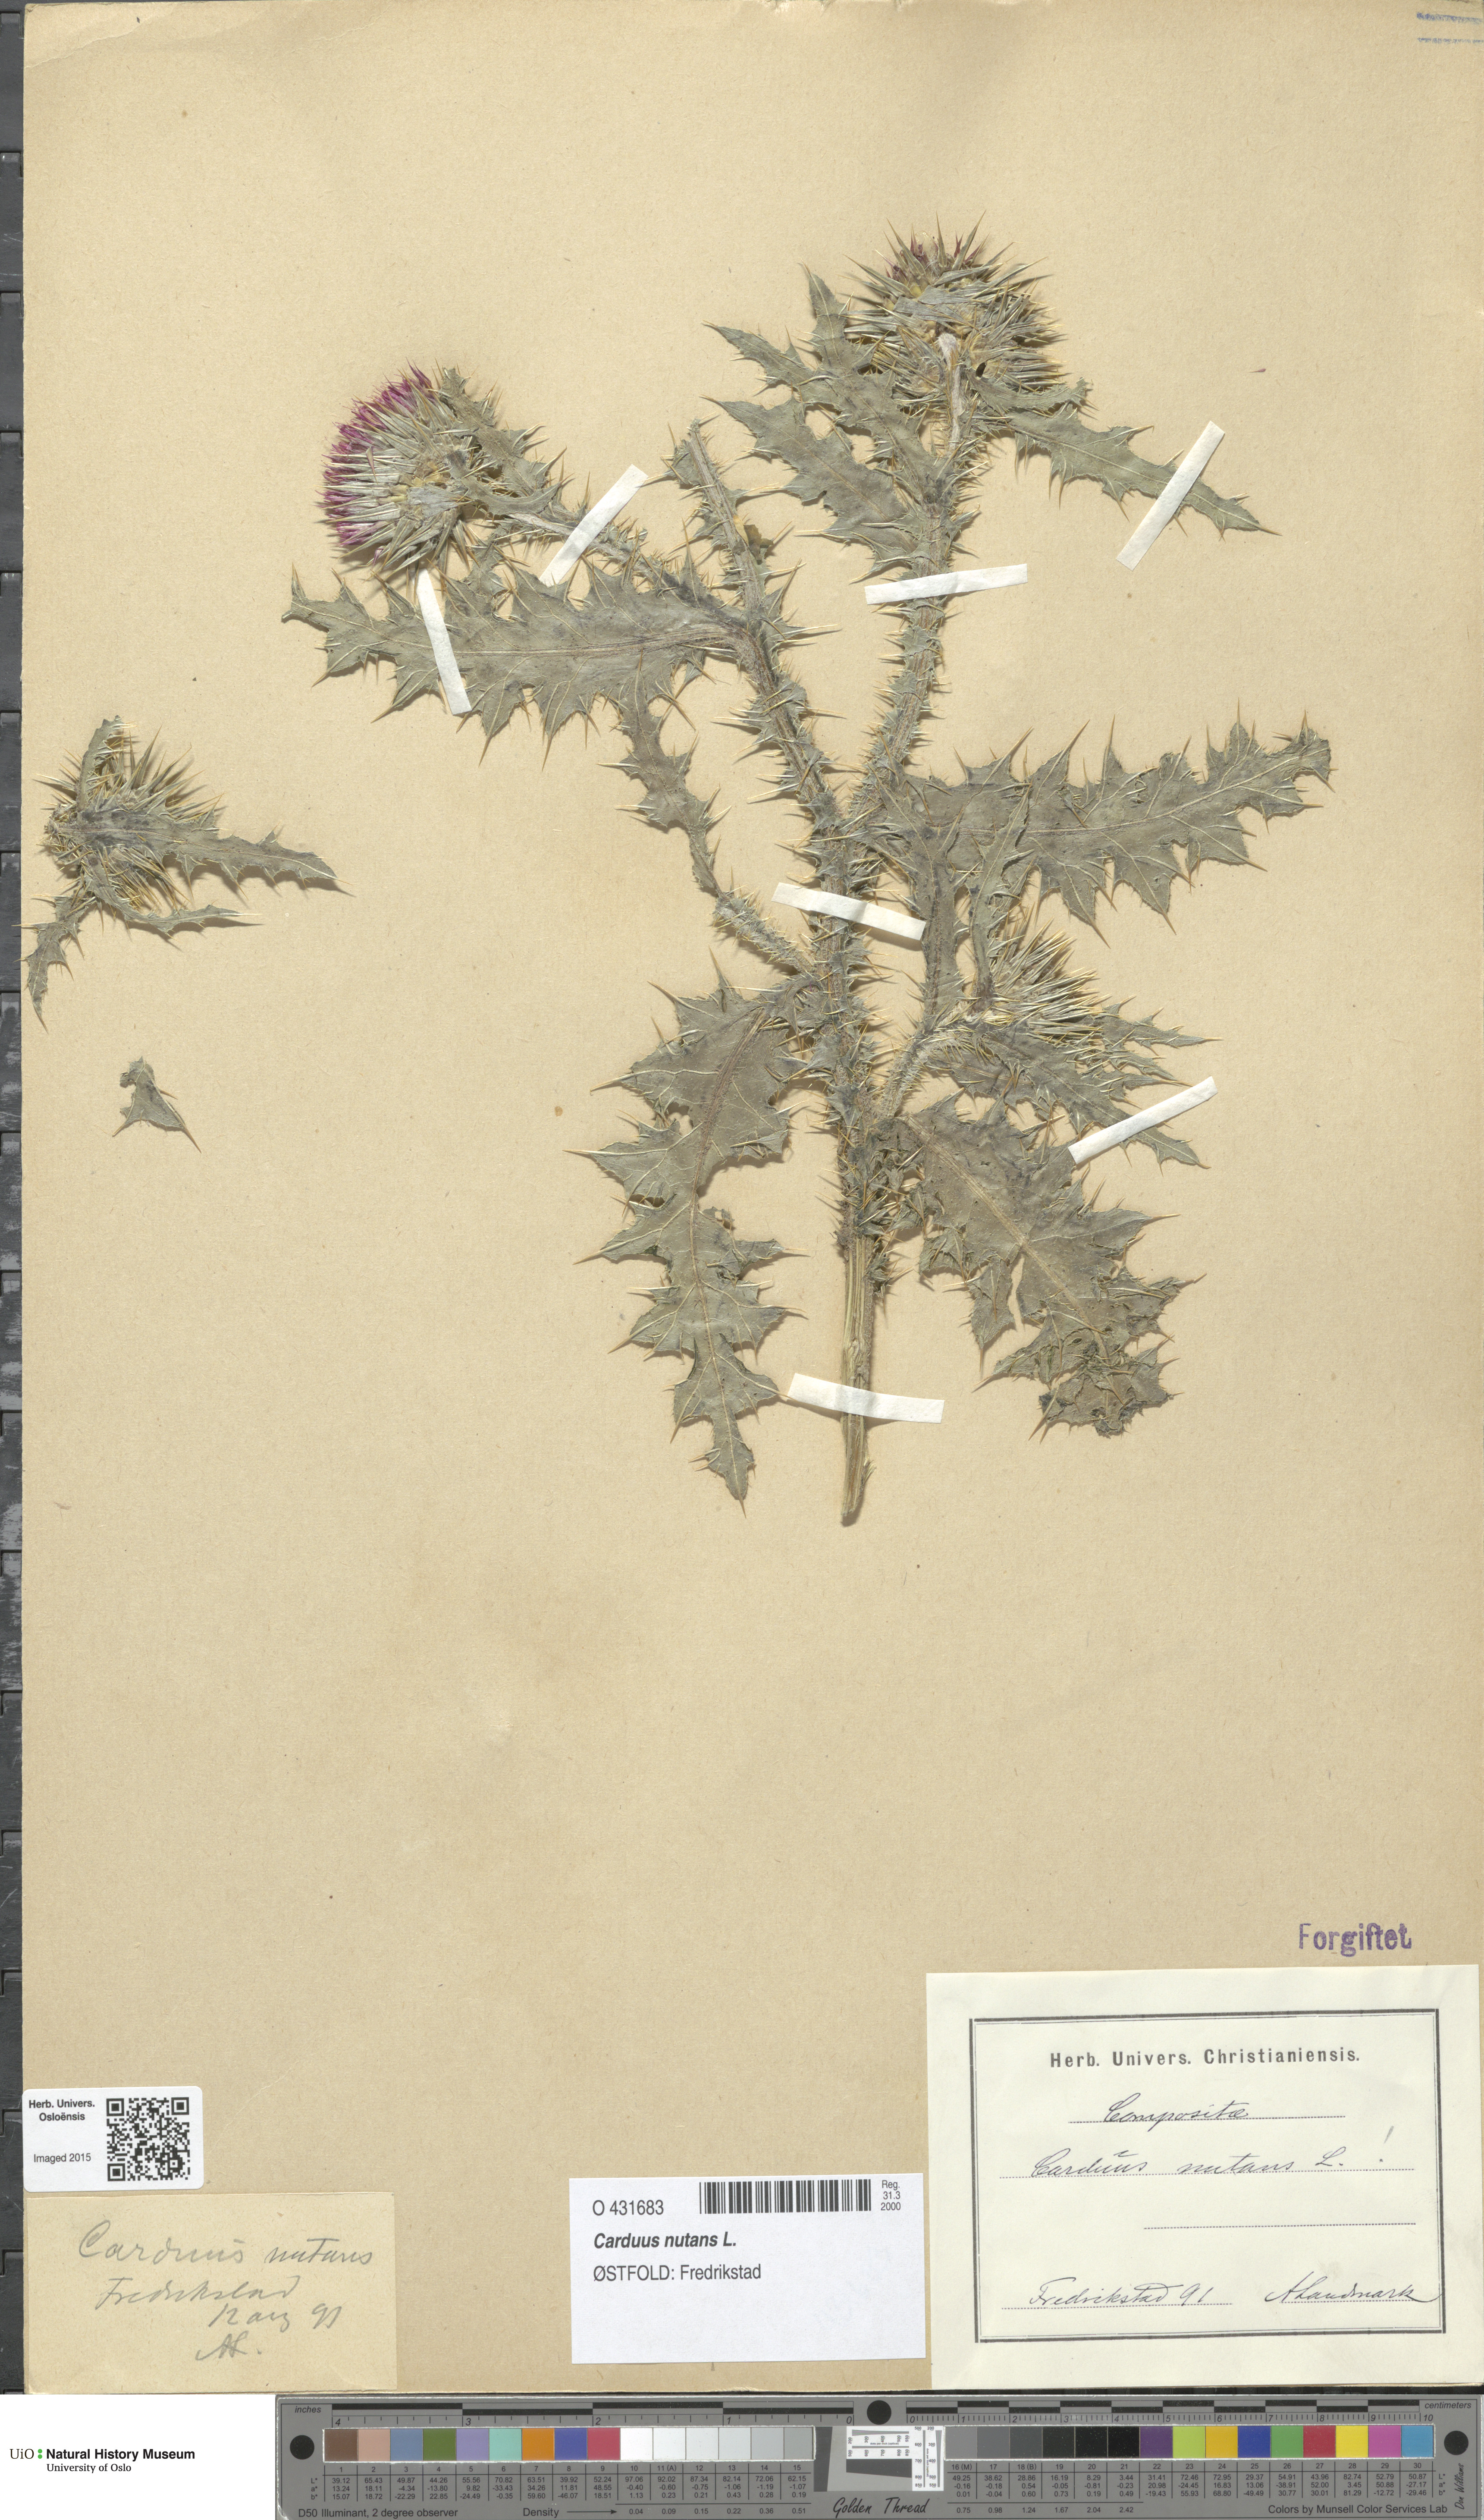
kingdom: Plantae
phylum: Tracheophyta
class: Magnoliopsida
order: Asterales
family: Asteraceae
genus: Carduus
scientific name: Carduus nutans
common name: Musk thistle
